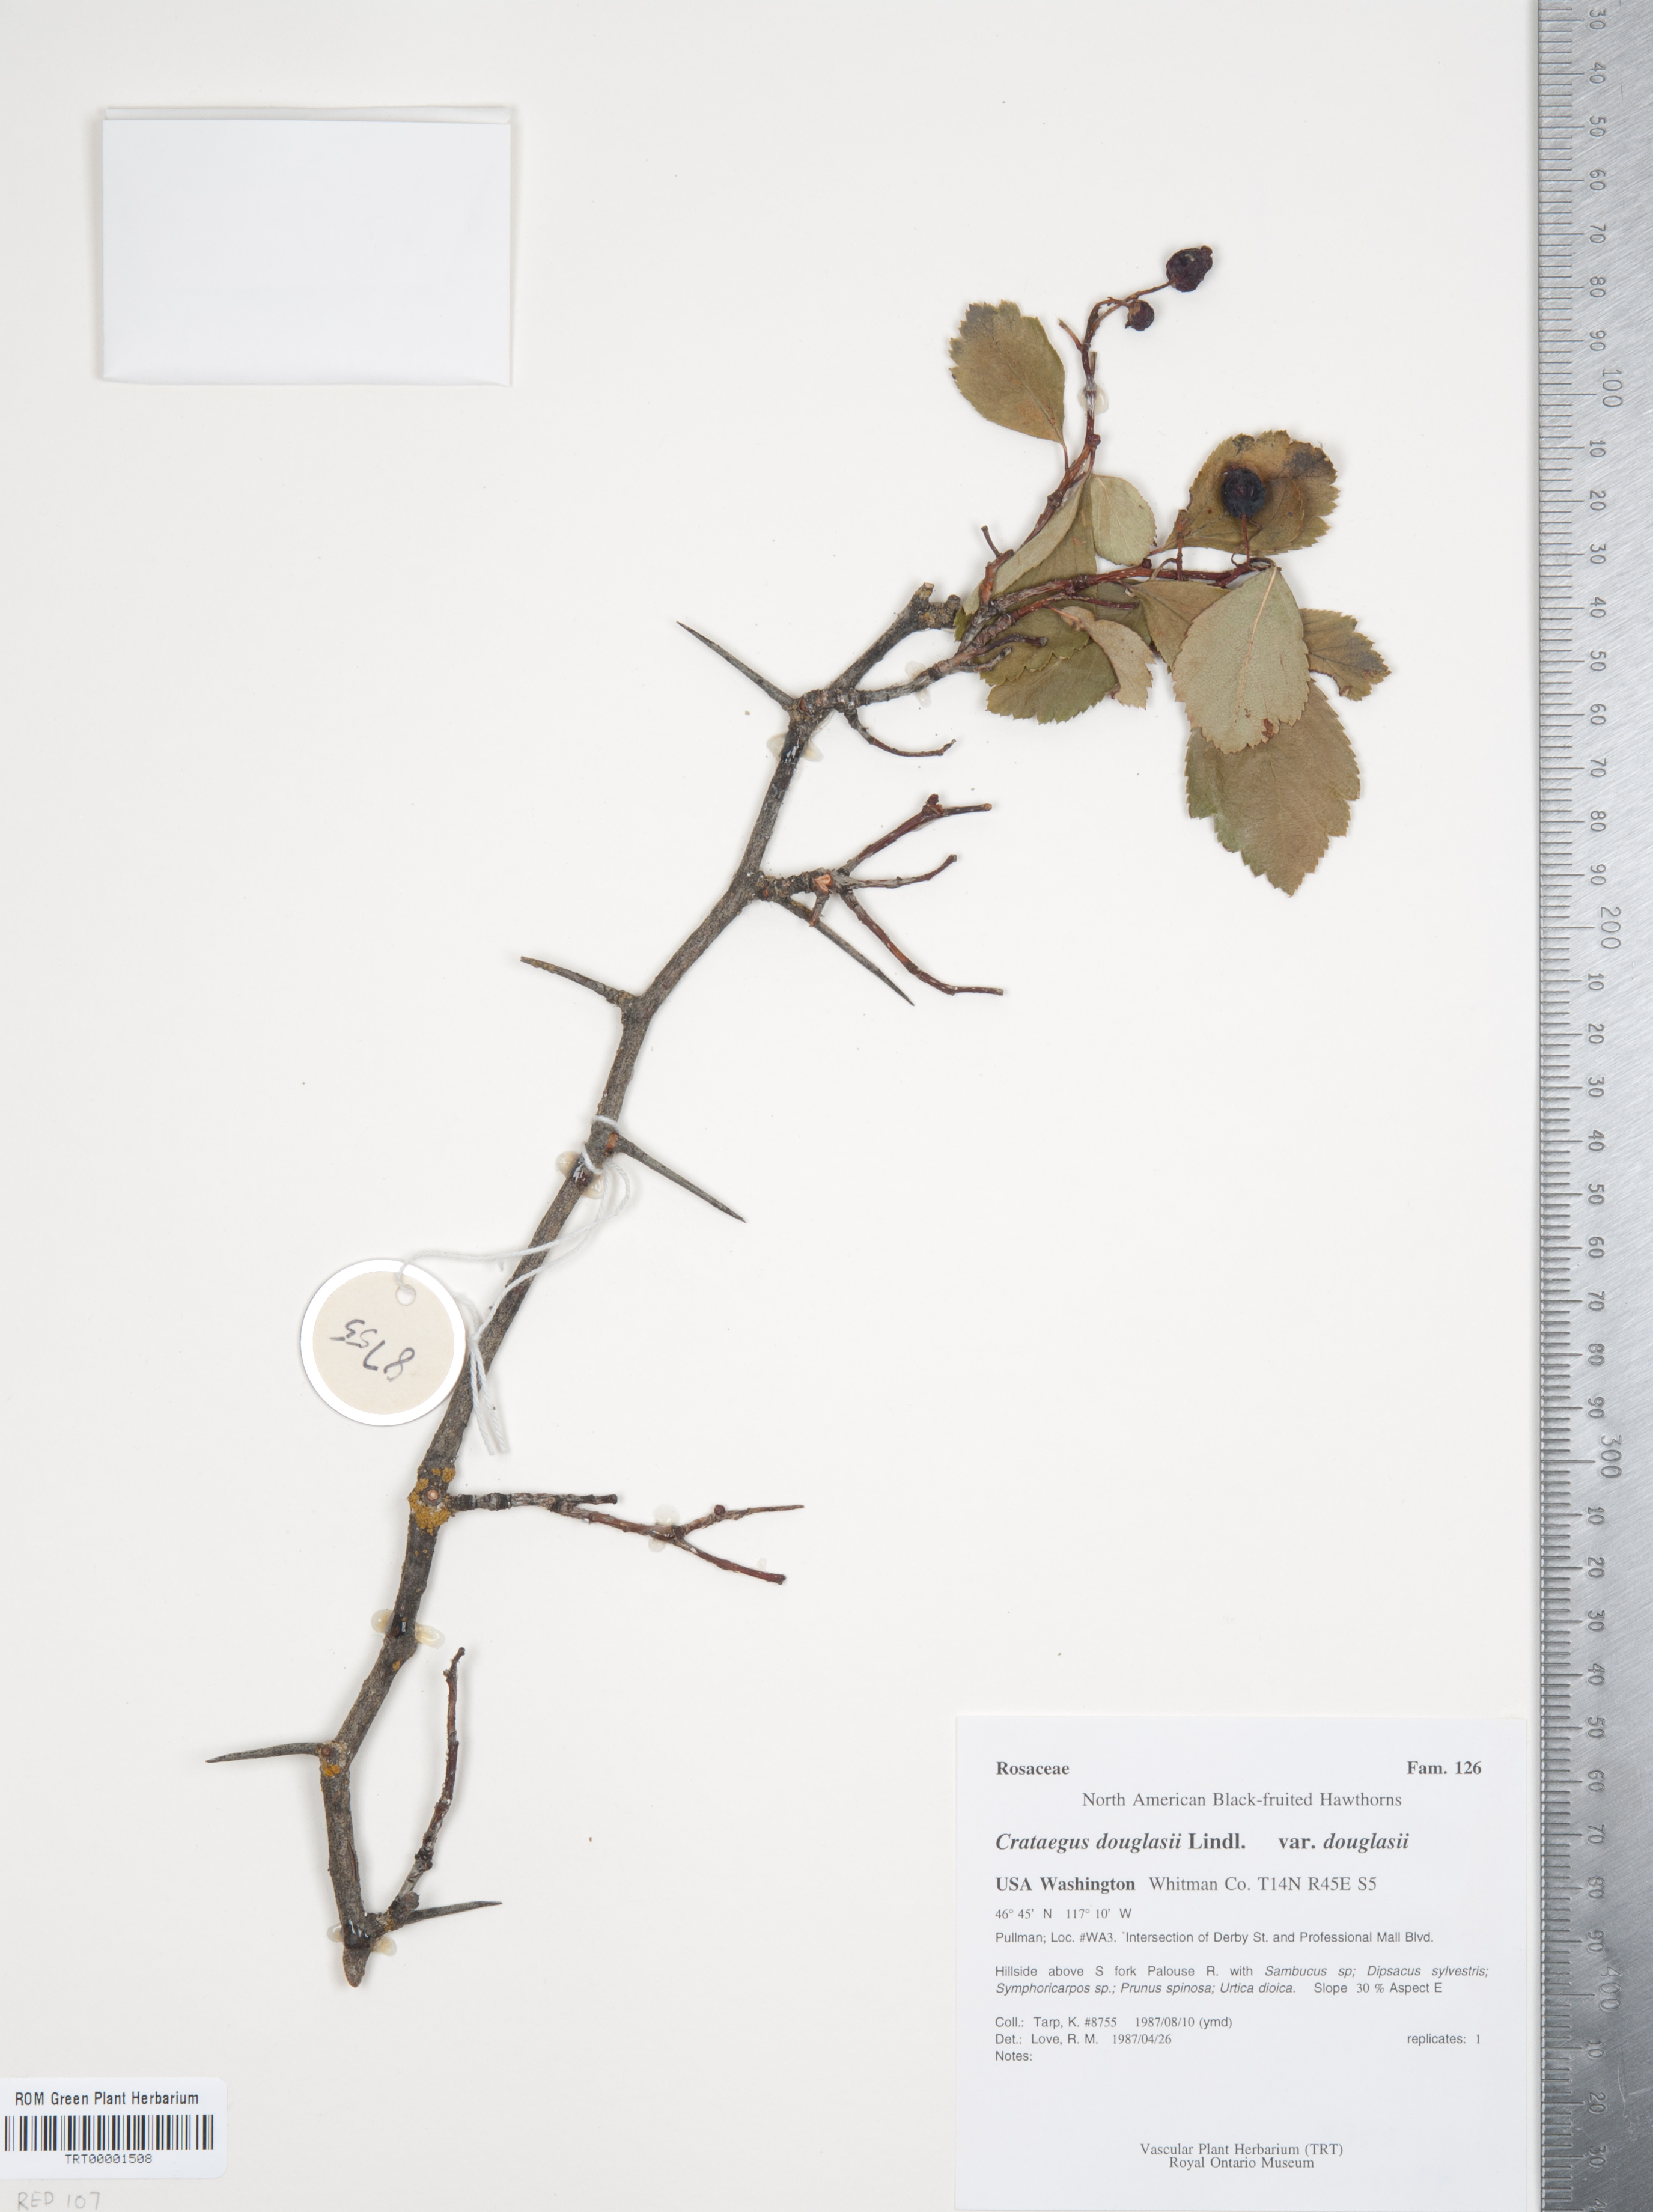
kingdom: Plantae
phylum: Tracheophyta
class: Magnoliopsida
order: Rosales
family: Rosaceae
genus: Crataegus
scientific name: Crataegus douglasii
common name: Black hawthorn
